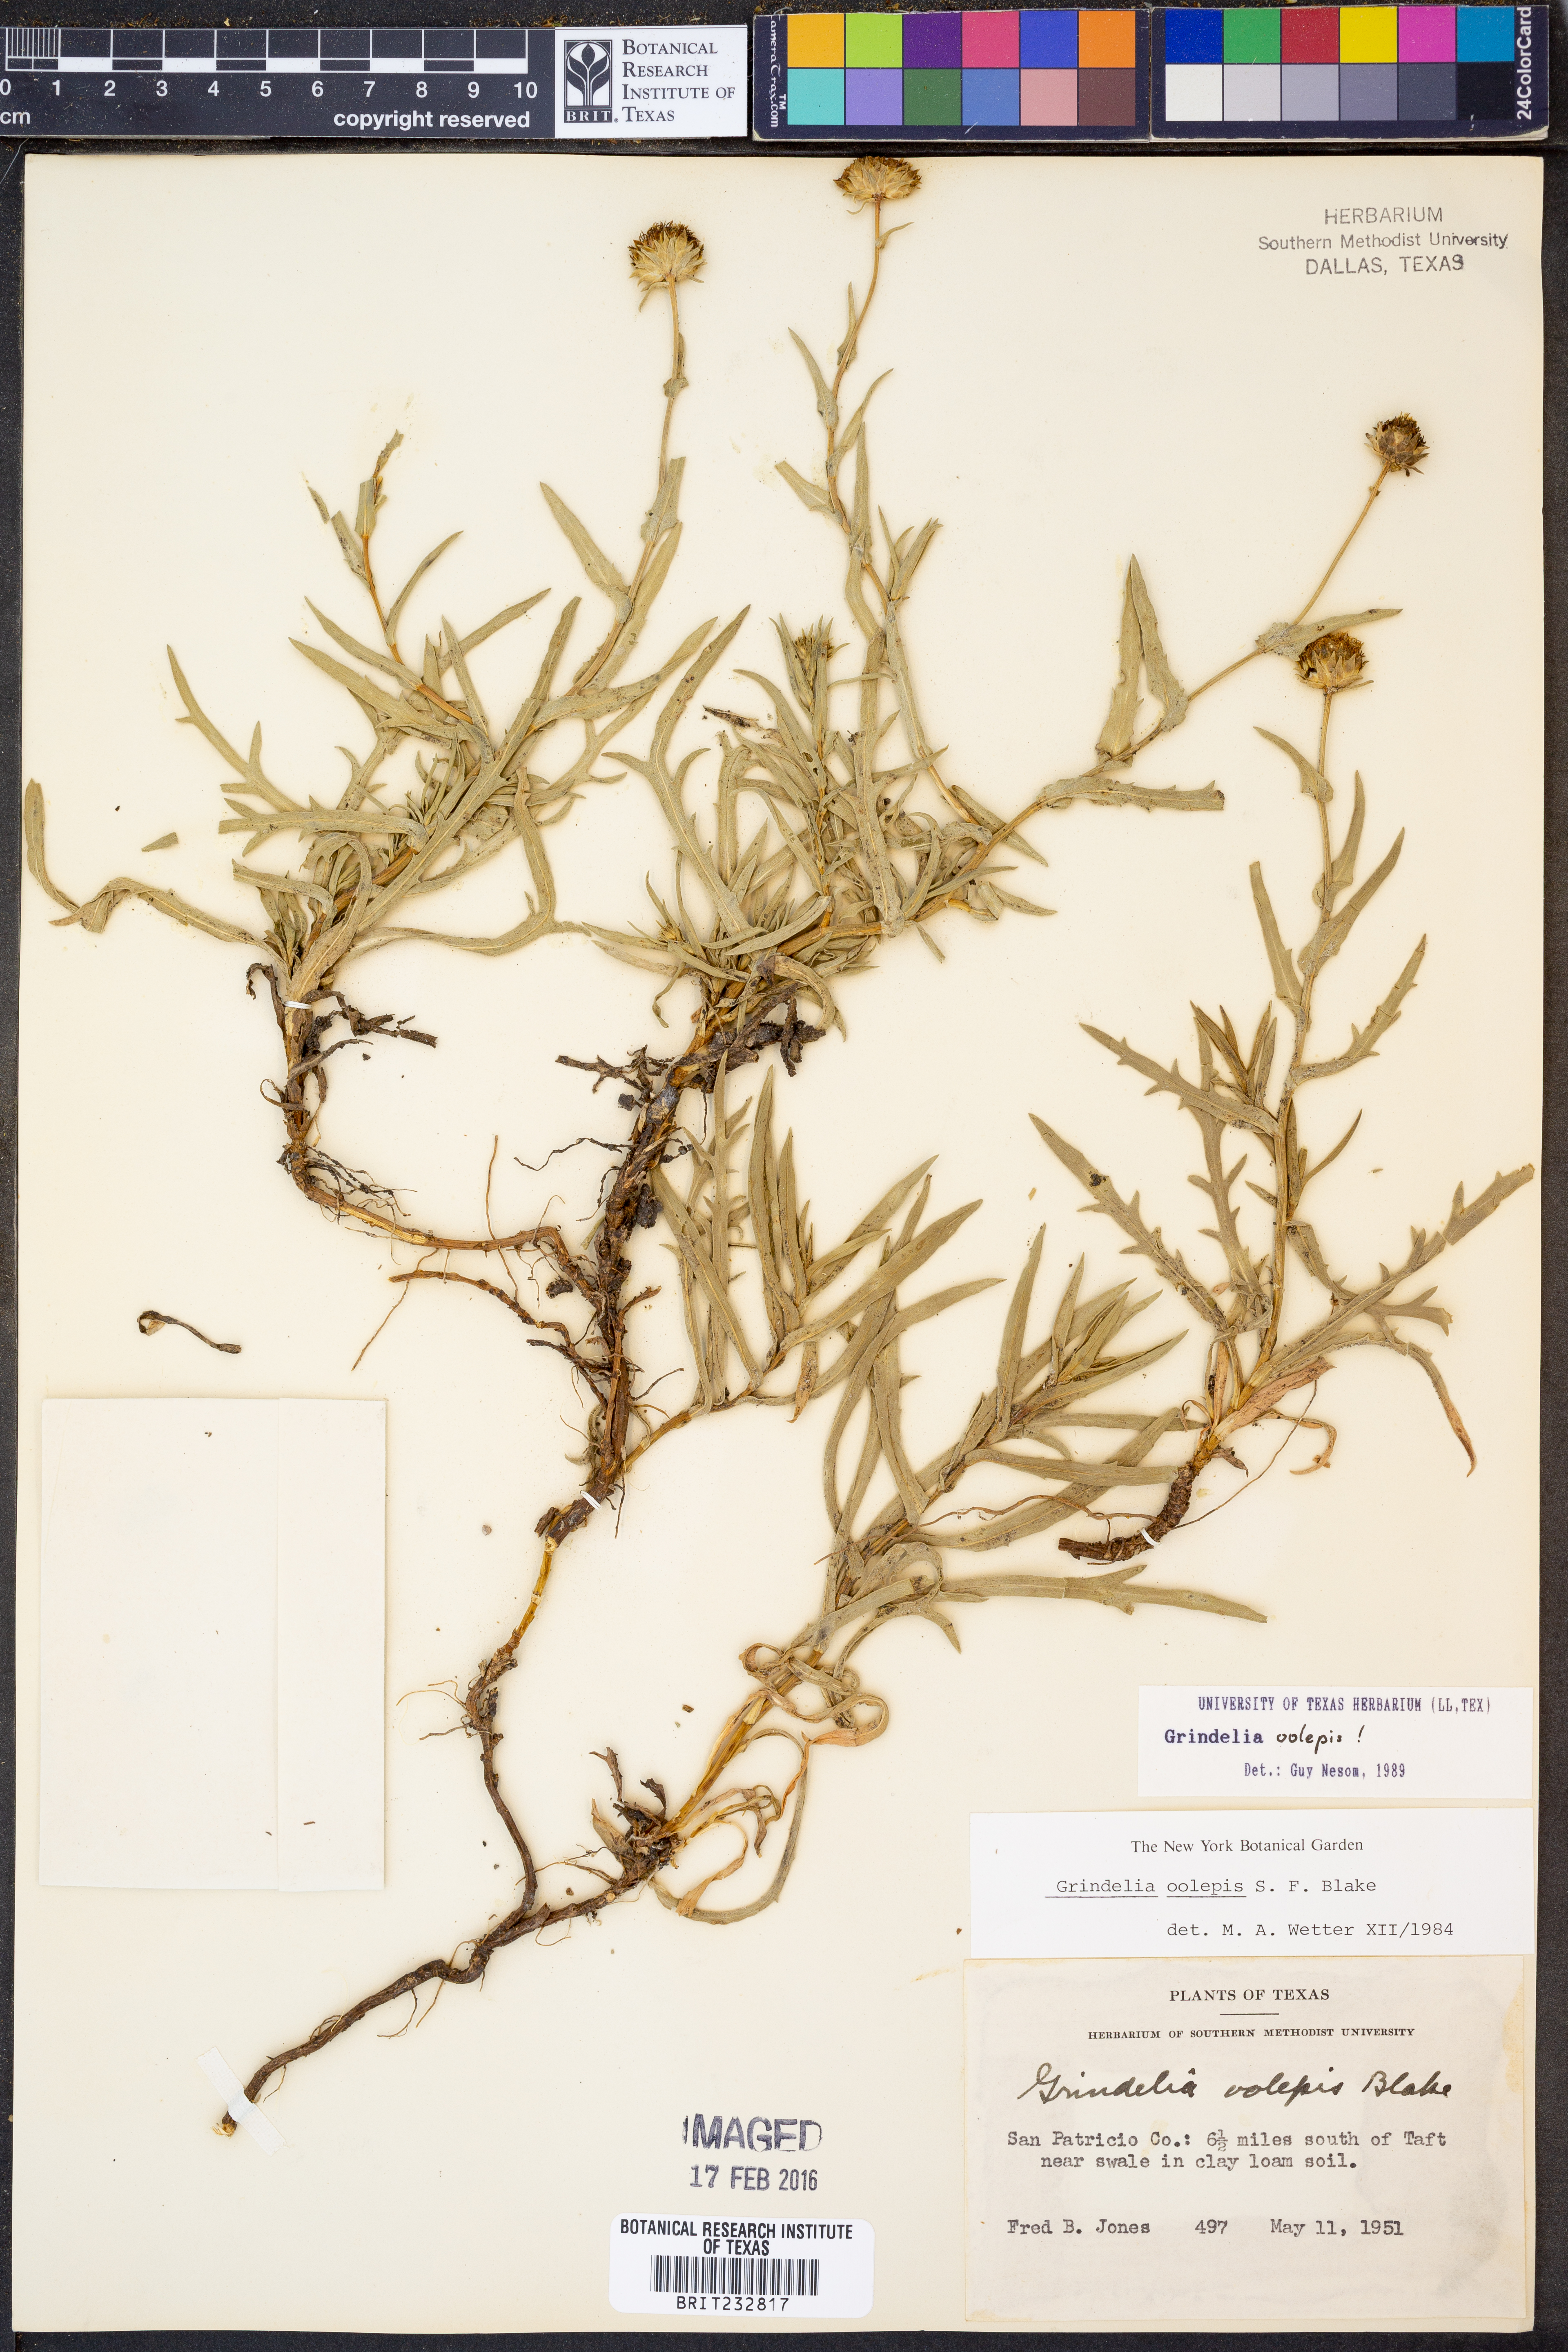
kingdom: Plantae
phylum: Tracheophyta
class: Magnoliopsida
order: Asterales
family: Asteraceae
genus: Grindelia
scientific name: Grindelia oolepis
